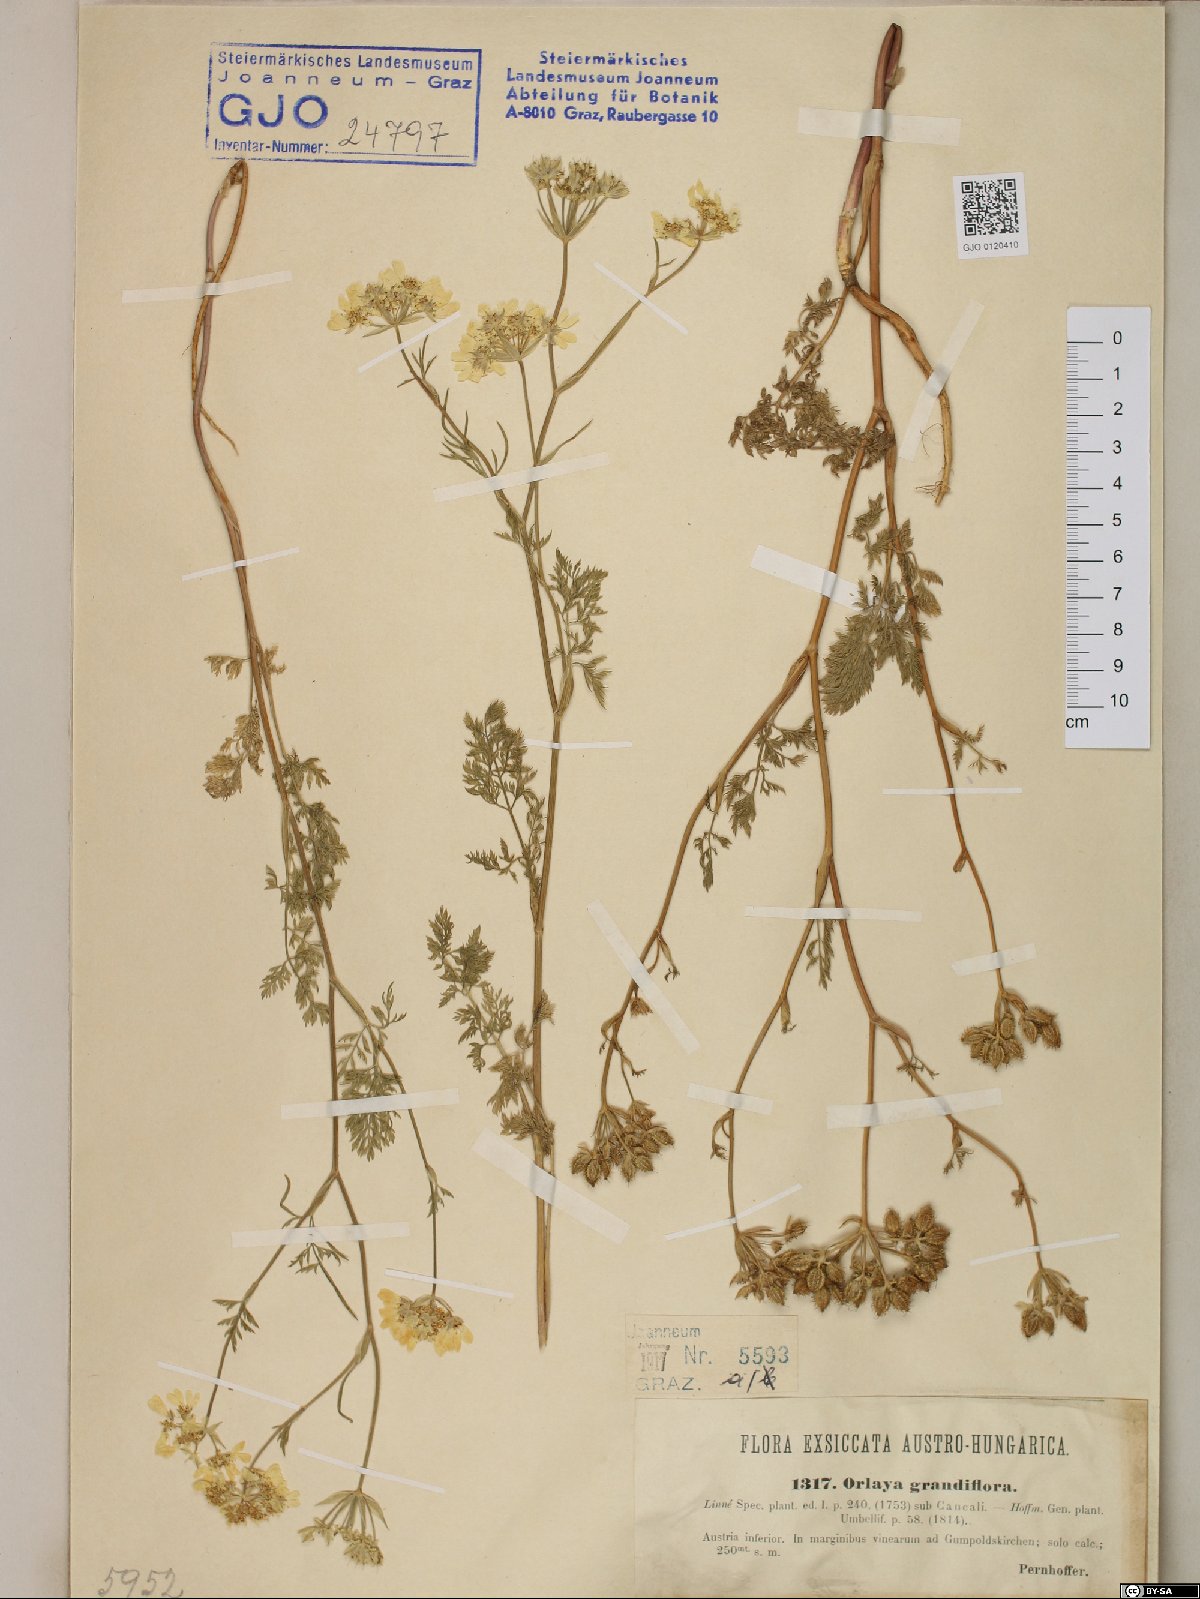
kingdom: Plantae
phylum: Tracheophyta
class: Magnoliopsida
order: Apiales
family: Apiaceae
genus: Orlaya
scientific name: Orlaya grandiflora
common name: White lace flower
